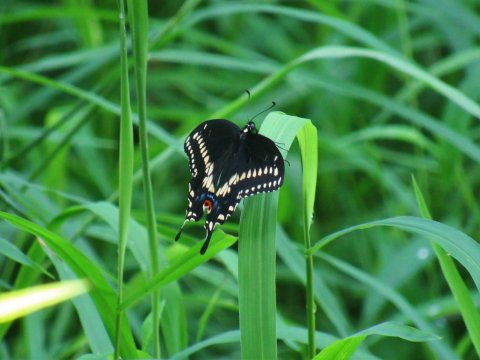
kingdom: Animalia
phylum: Arthropoda
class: Insecta
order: Lepidoptera
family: Papilionidae
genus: Papilio
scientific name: Papilio polyxenes
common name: Black Swallowtail
